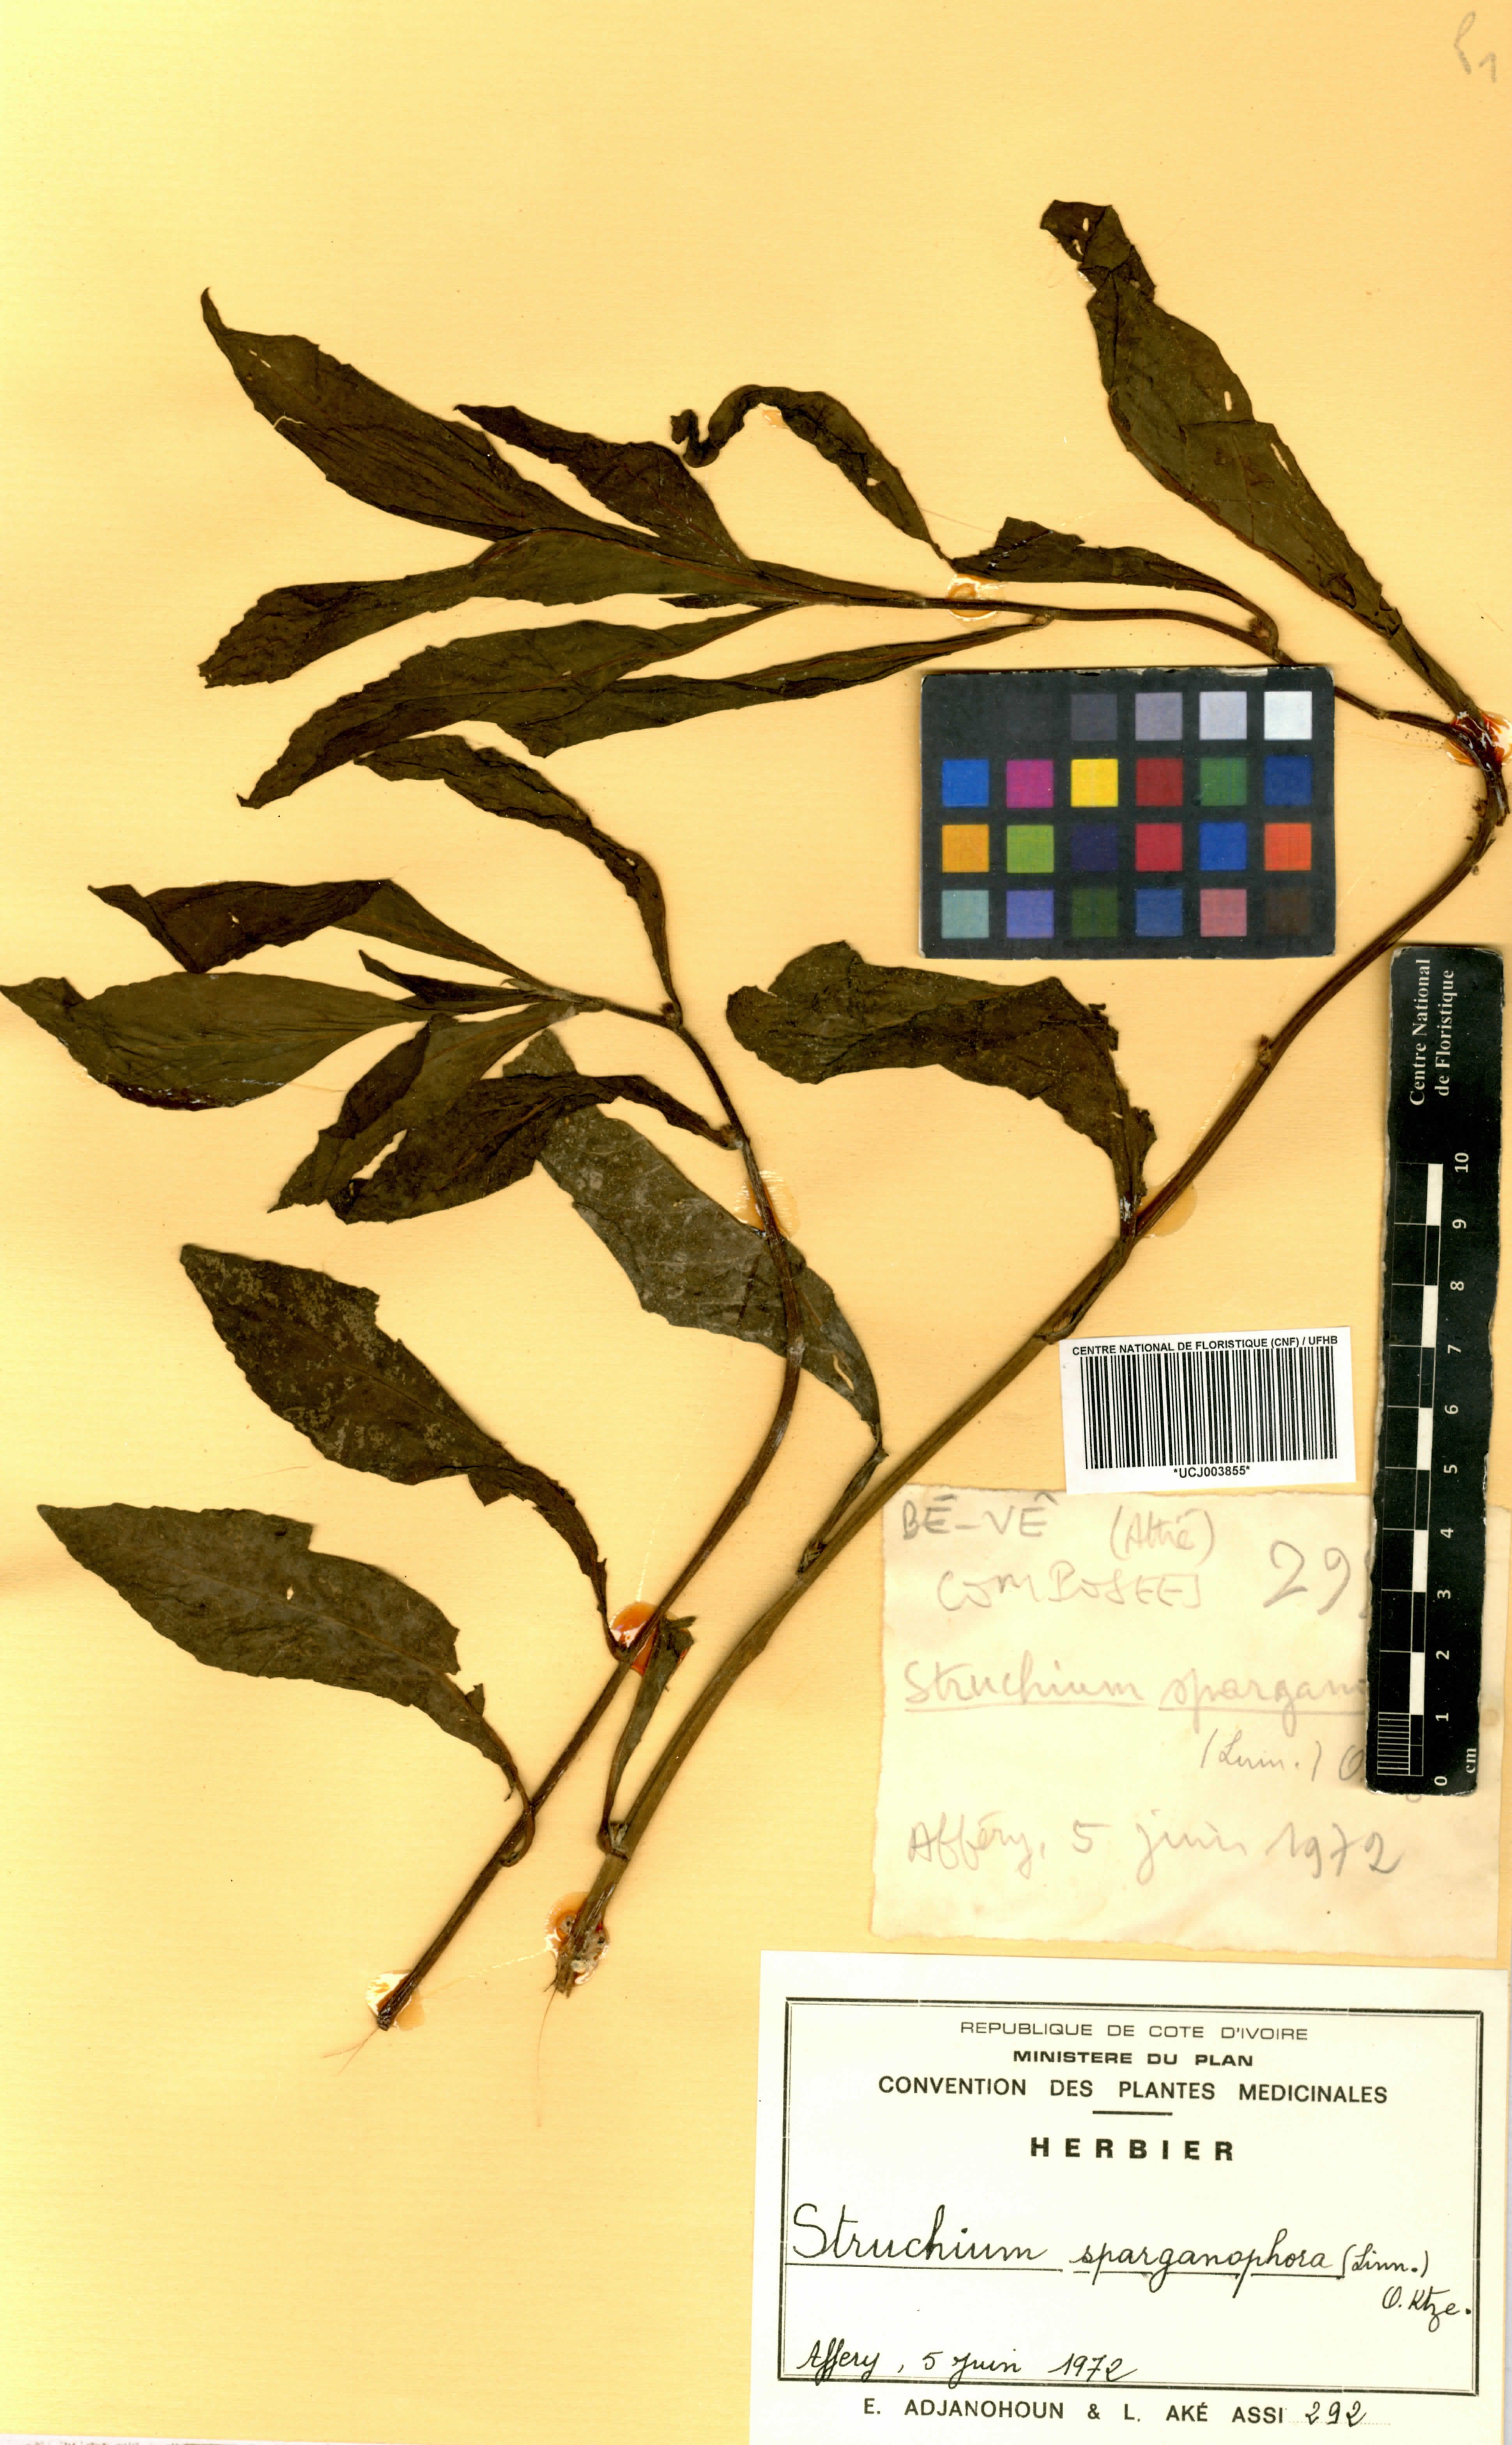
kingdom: Plantae
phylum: Tracheophyta
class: Magnoliopsida
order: Asterales
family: Asteraceae
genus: Struchium
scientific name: Struchium sparganophorum
